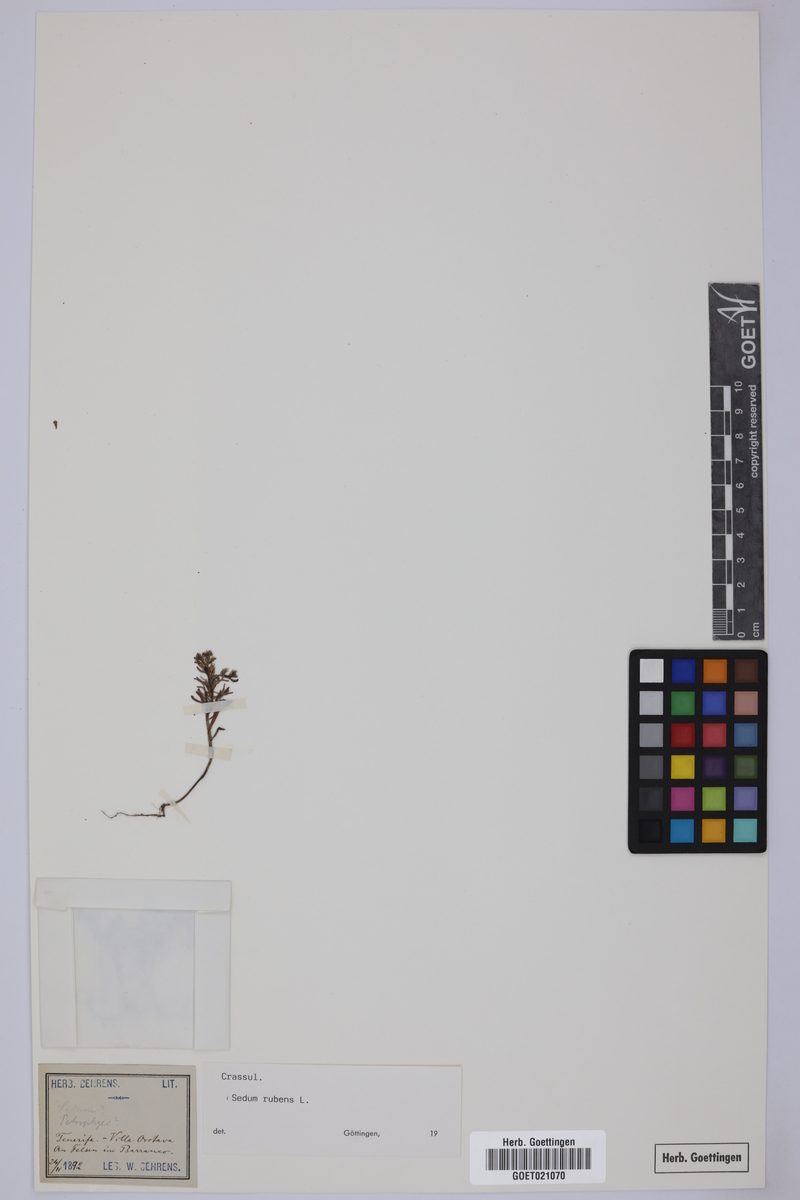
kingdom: Plantae
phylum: Tracheophyta
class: Magnoliopsida
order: Saxifragales
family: Crassulaceae
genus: Sedum
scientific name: Sedum rubens
